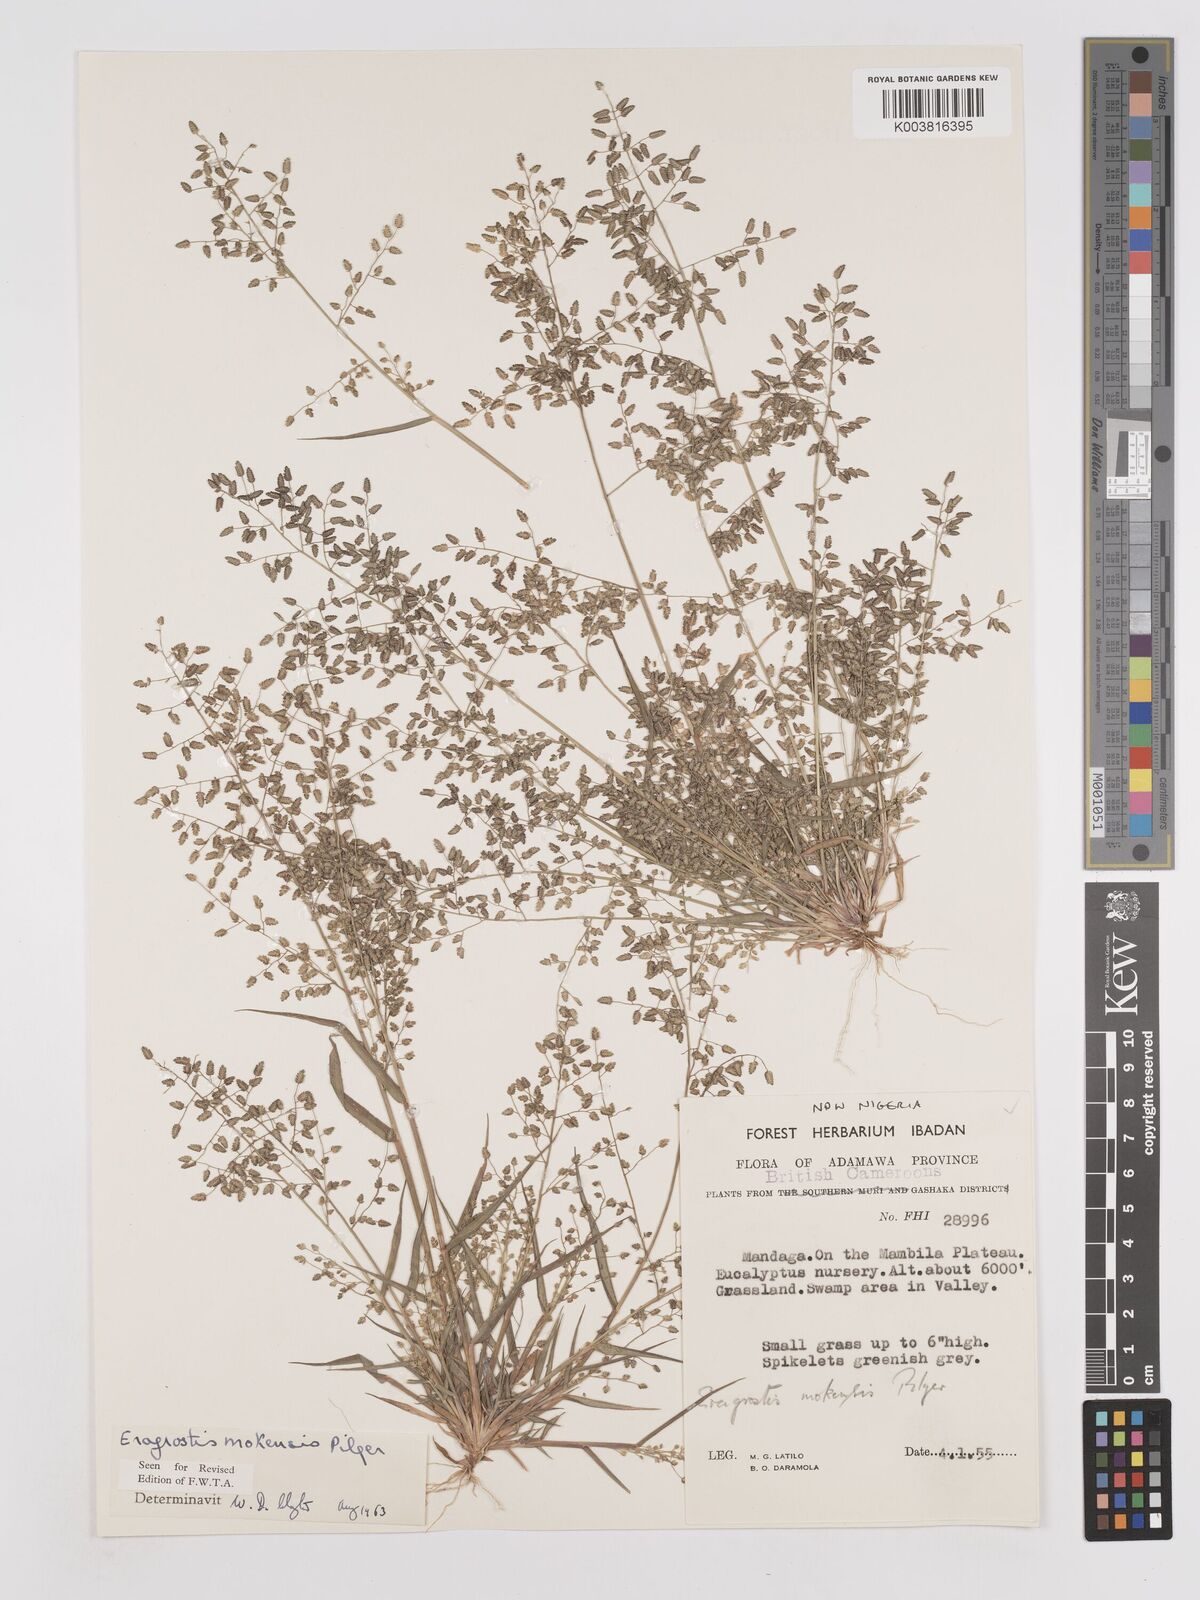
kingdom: Plantae
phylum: Tracheophyta
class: Liliopsida
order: Poales
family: Poaceae
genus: Eragrostis
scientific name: Eragrostis mokensis
